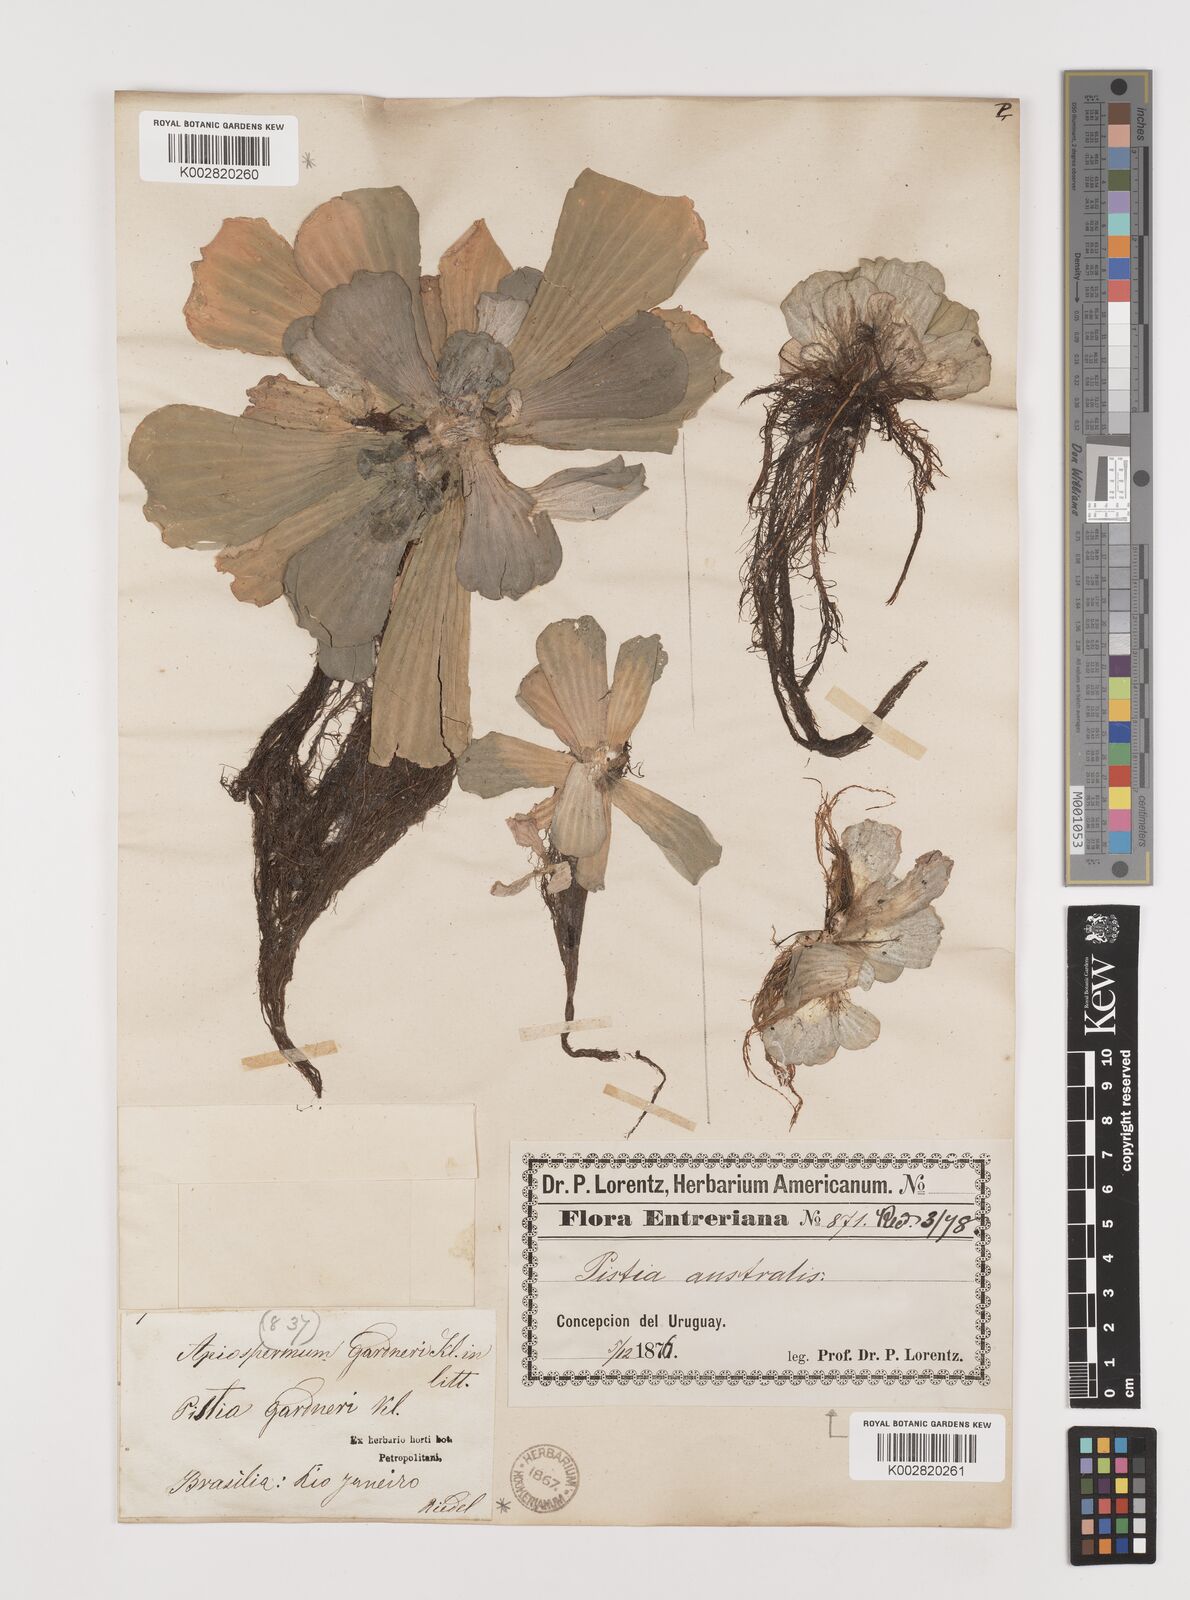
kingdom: Plantae
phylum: Tracheophyta
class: Liliopsida
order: Alismatales
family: Araceae
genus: Pistia
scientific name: Pistia stratiotes
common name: Water lettuce
